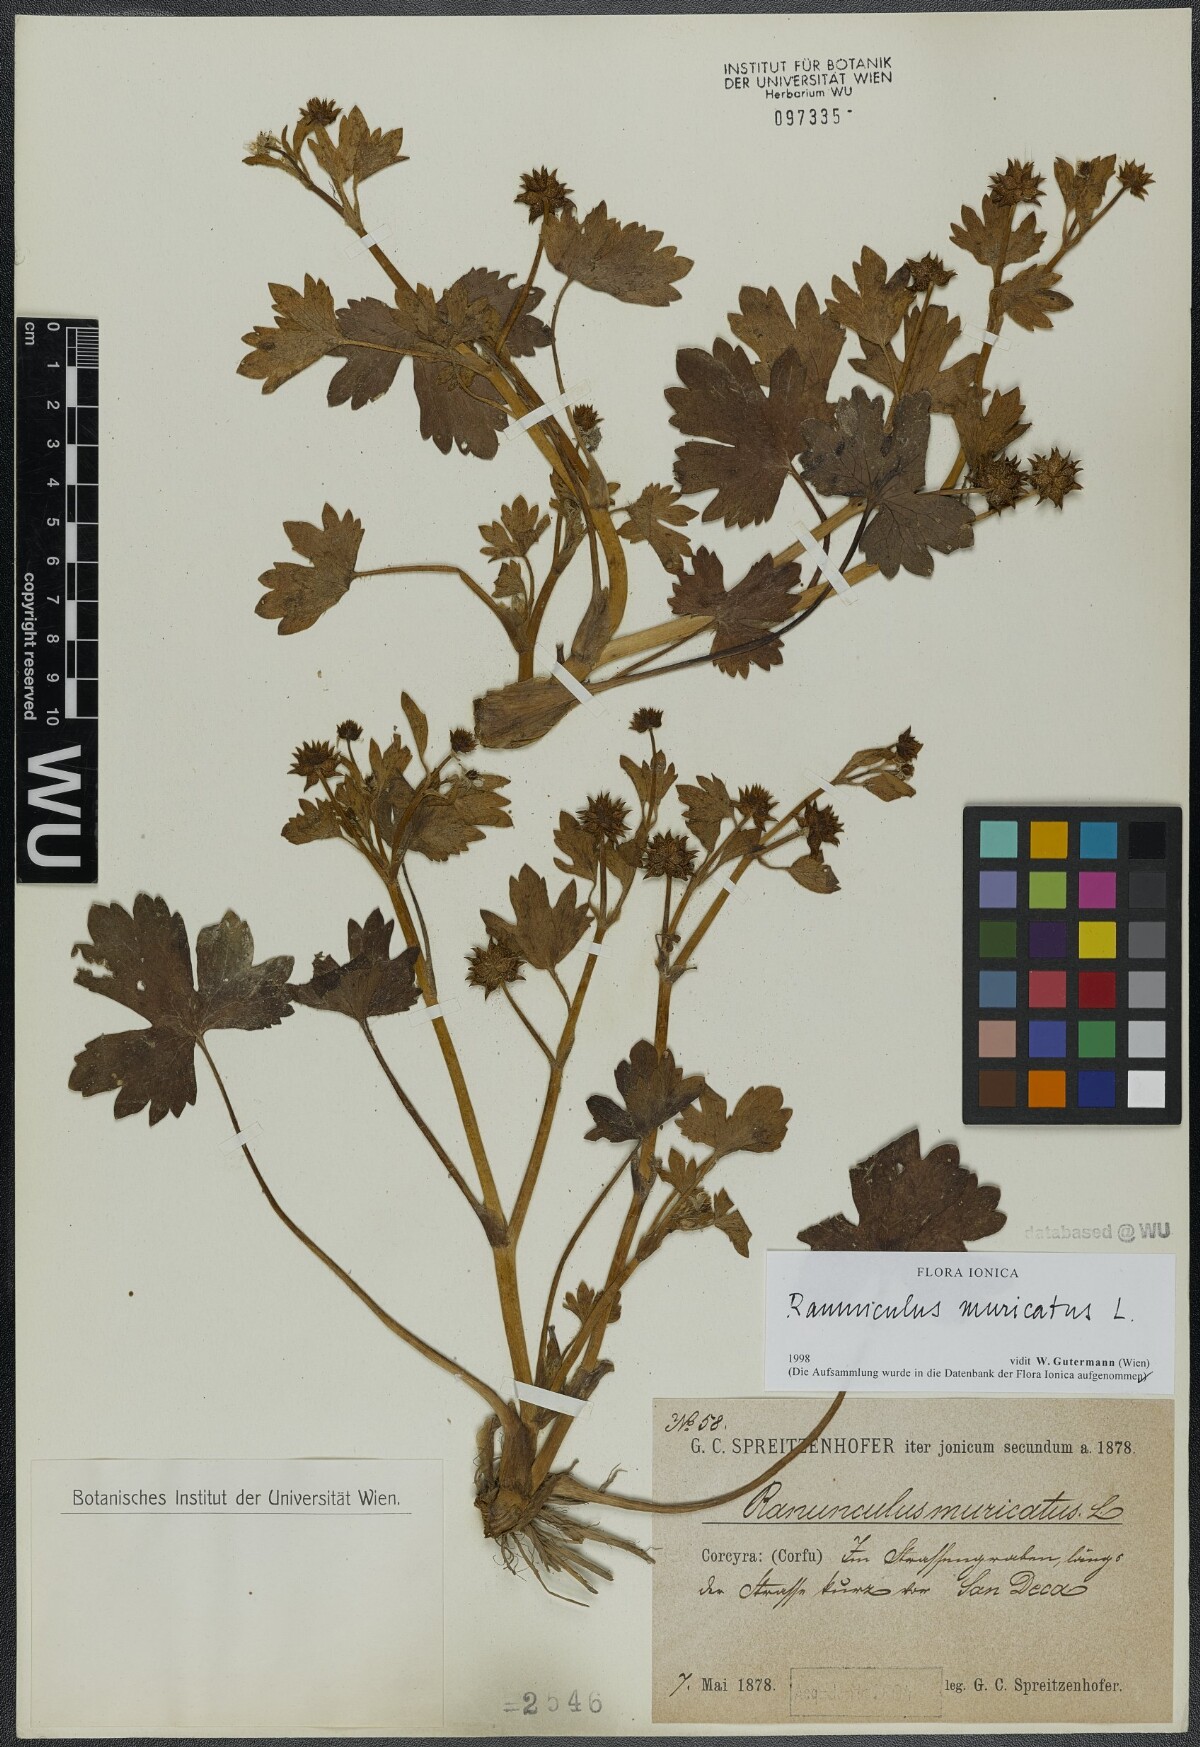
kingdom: Plantae
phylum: Tracheophyta
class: Magnoliopsida
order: Ranunculales
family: Ranunculaceae
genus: Ranunculus
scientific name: Ranunculus muricatus
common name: Rough-fruited buttercup
